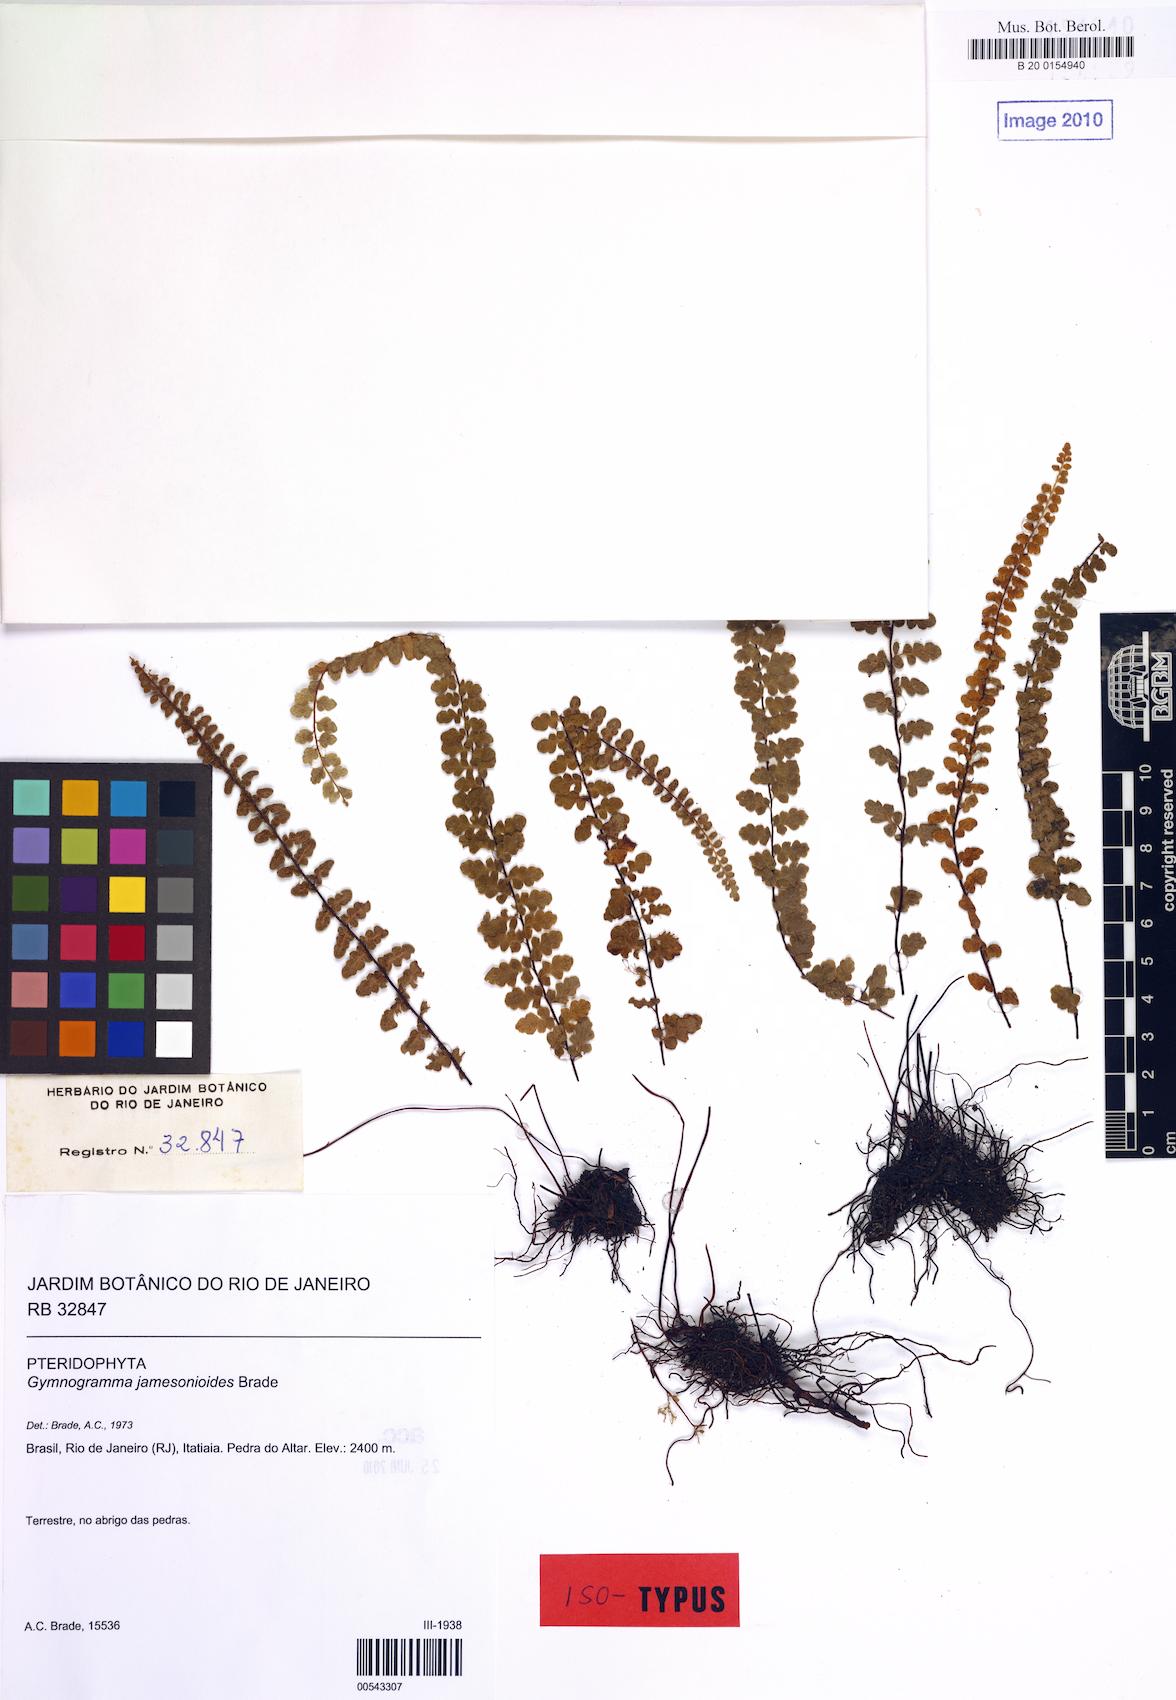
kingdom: Plantae
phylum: Tracheophyta
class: Polypodiopsida
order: Polypodiales
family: Pteridaceae
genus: Jamesonia
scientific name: Jamesonia elongata
